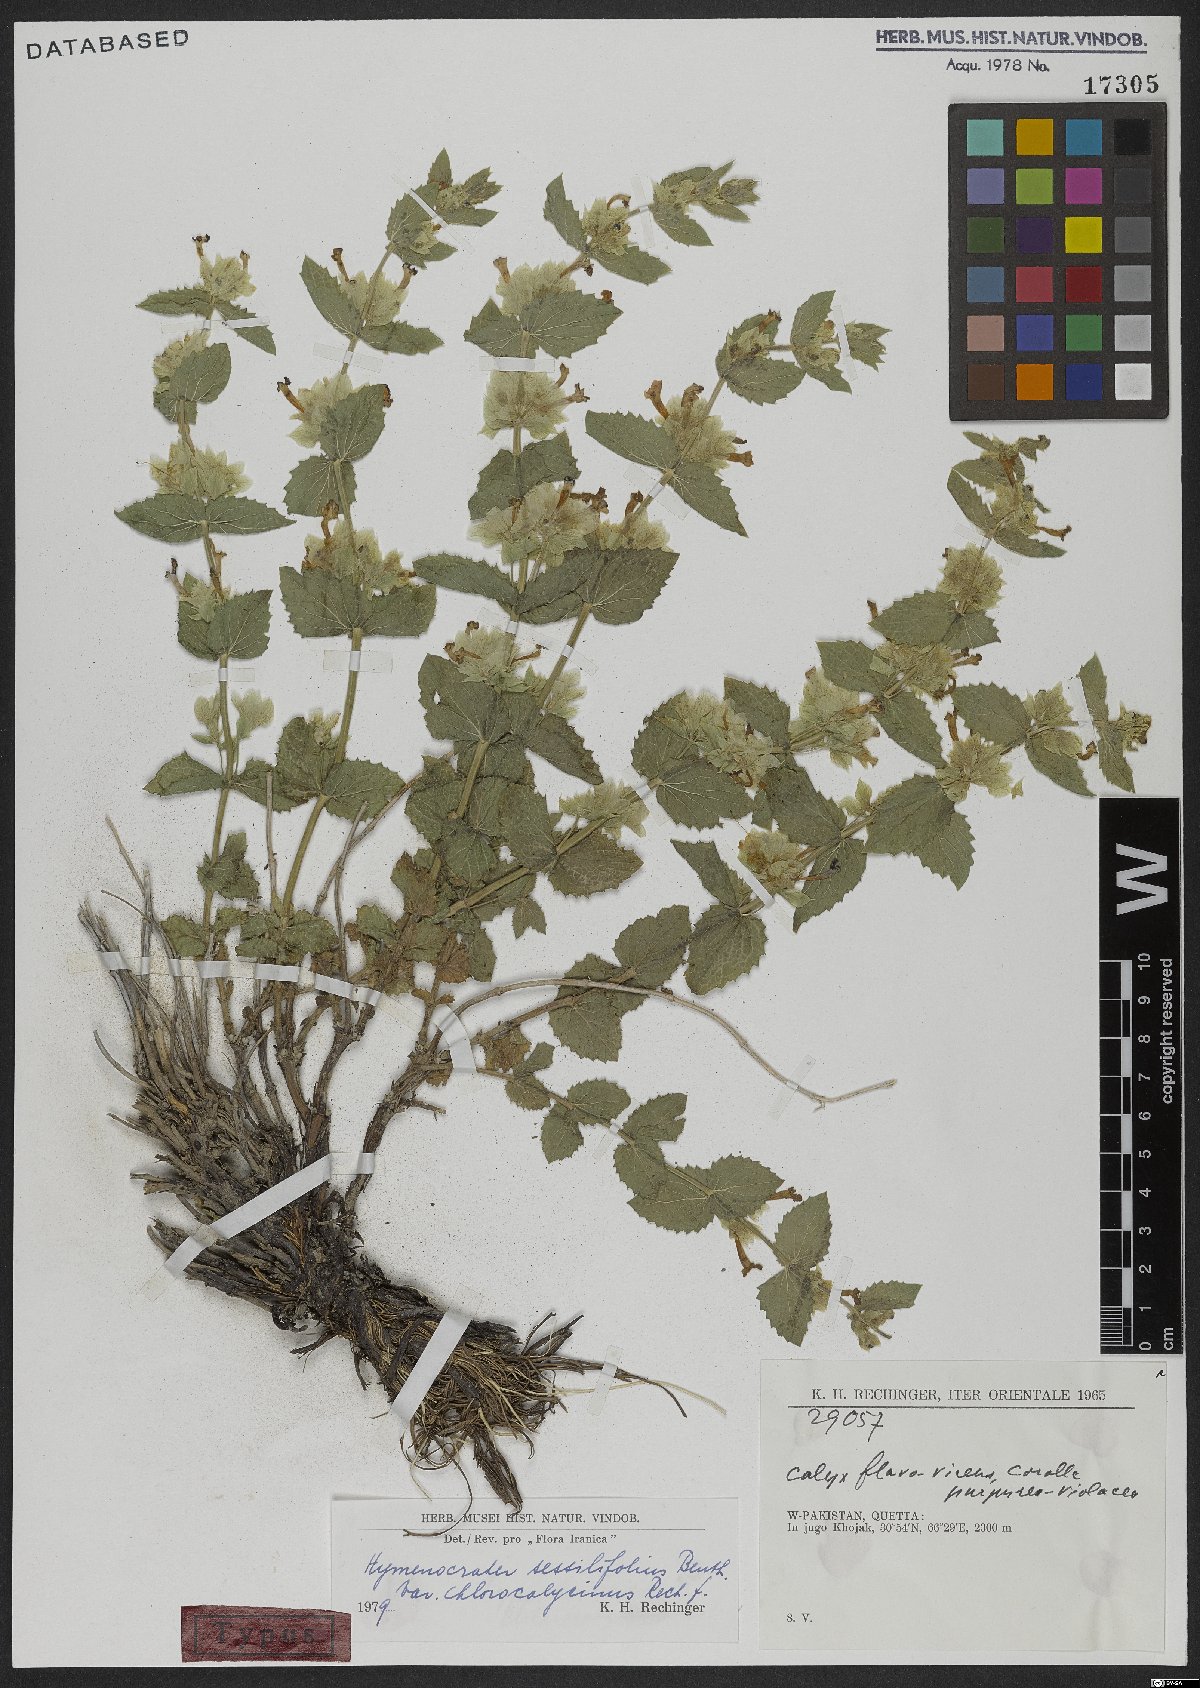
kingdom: Plantae
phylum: Tracheophyta
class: Magnoliopsida
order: Lamiales
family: Lamiaceae
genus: Nepeta
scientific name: Nepeta argutidens
